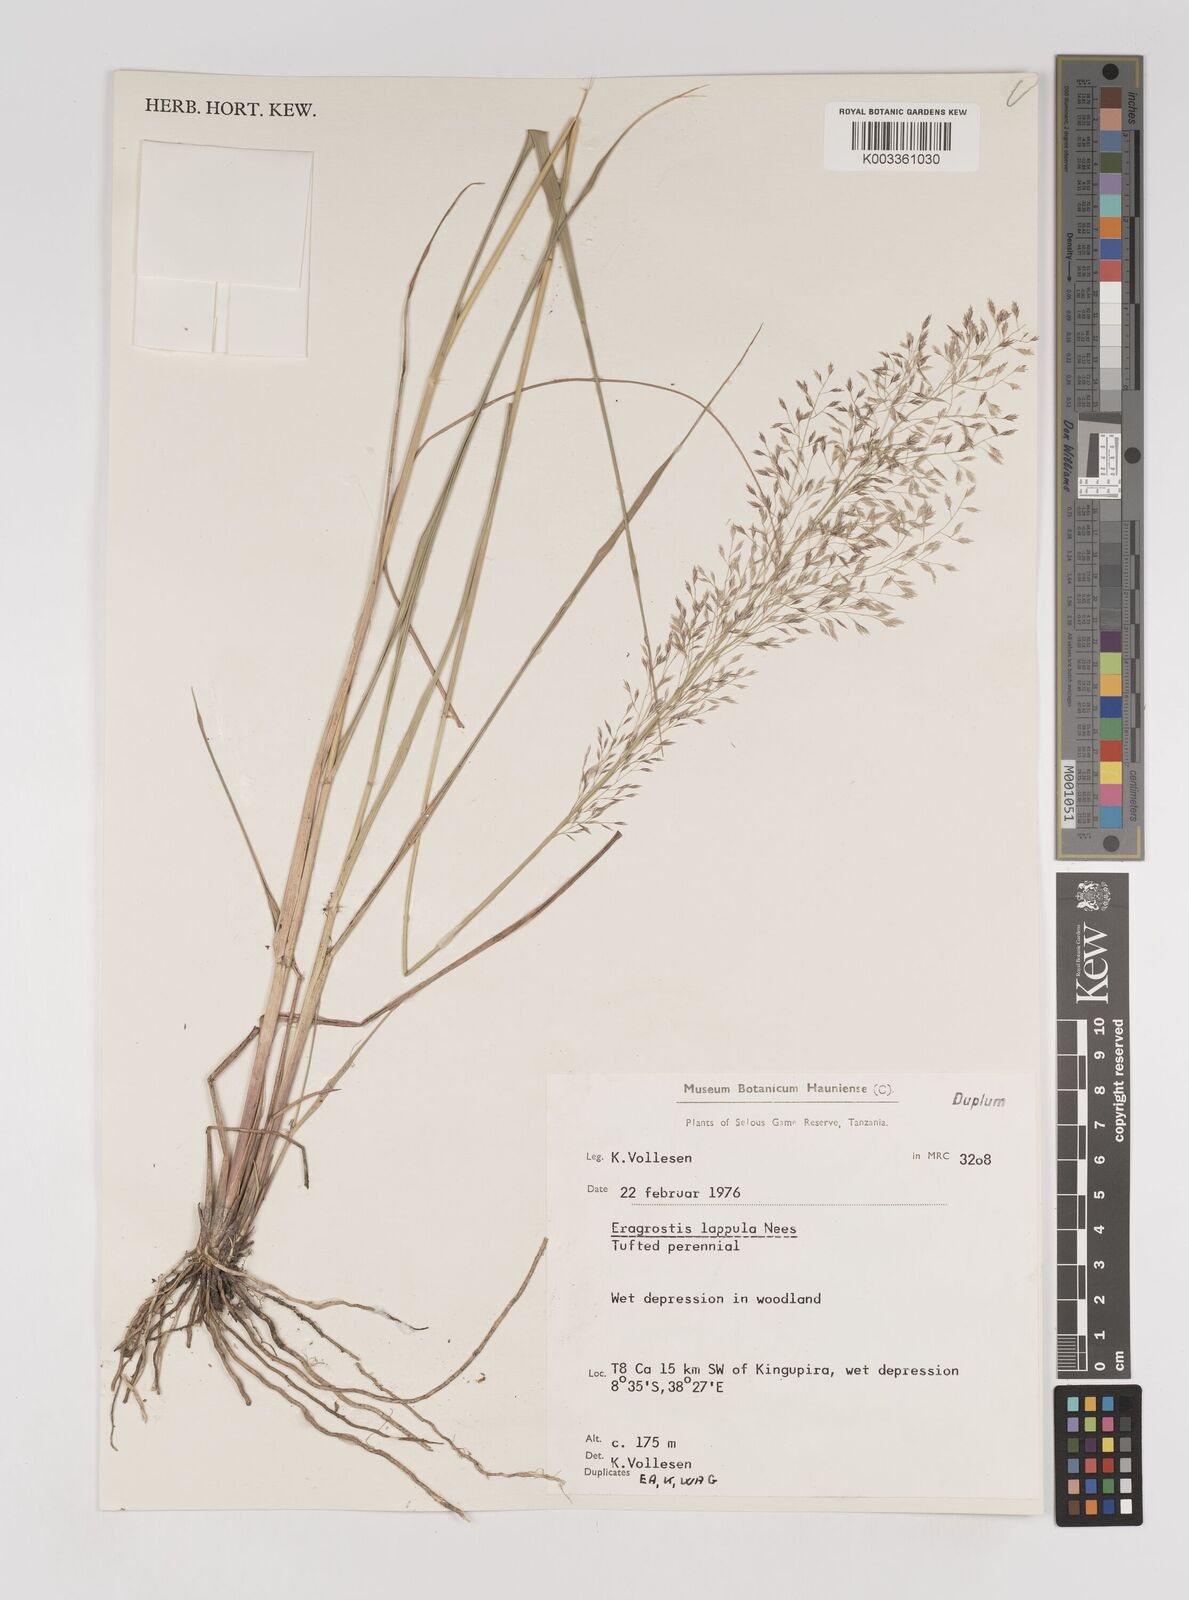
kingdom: Plantae
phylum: Tracheophyta
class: Liliopsida
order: Poales
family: Poaceae
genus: Eragrostis
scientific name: Eragrostis lappula
